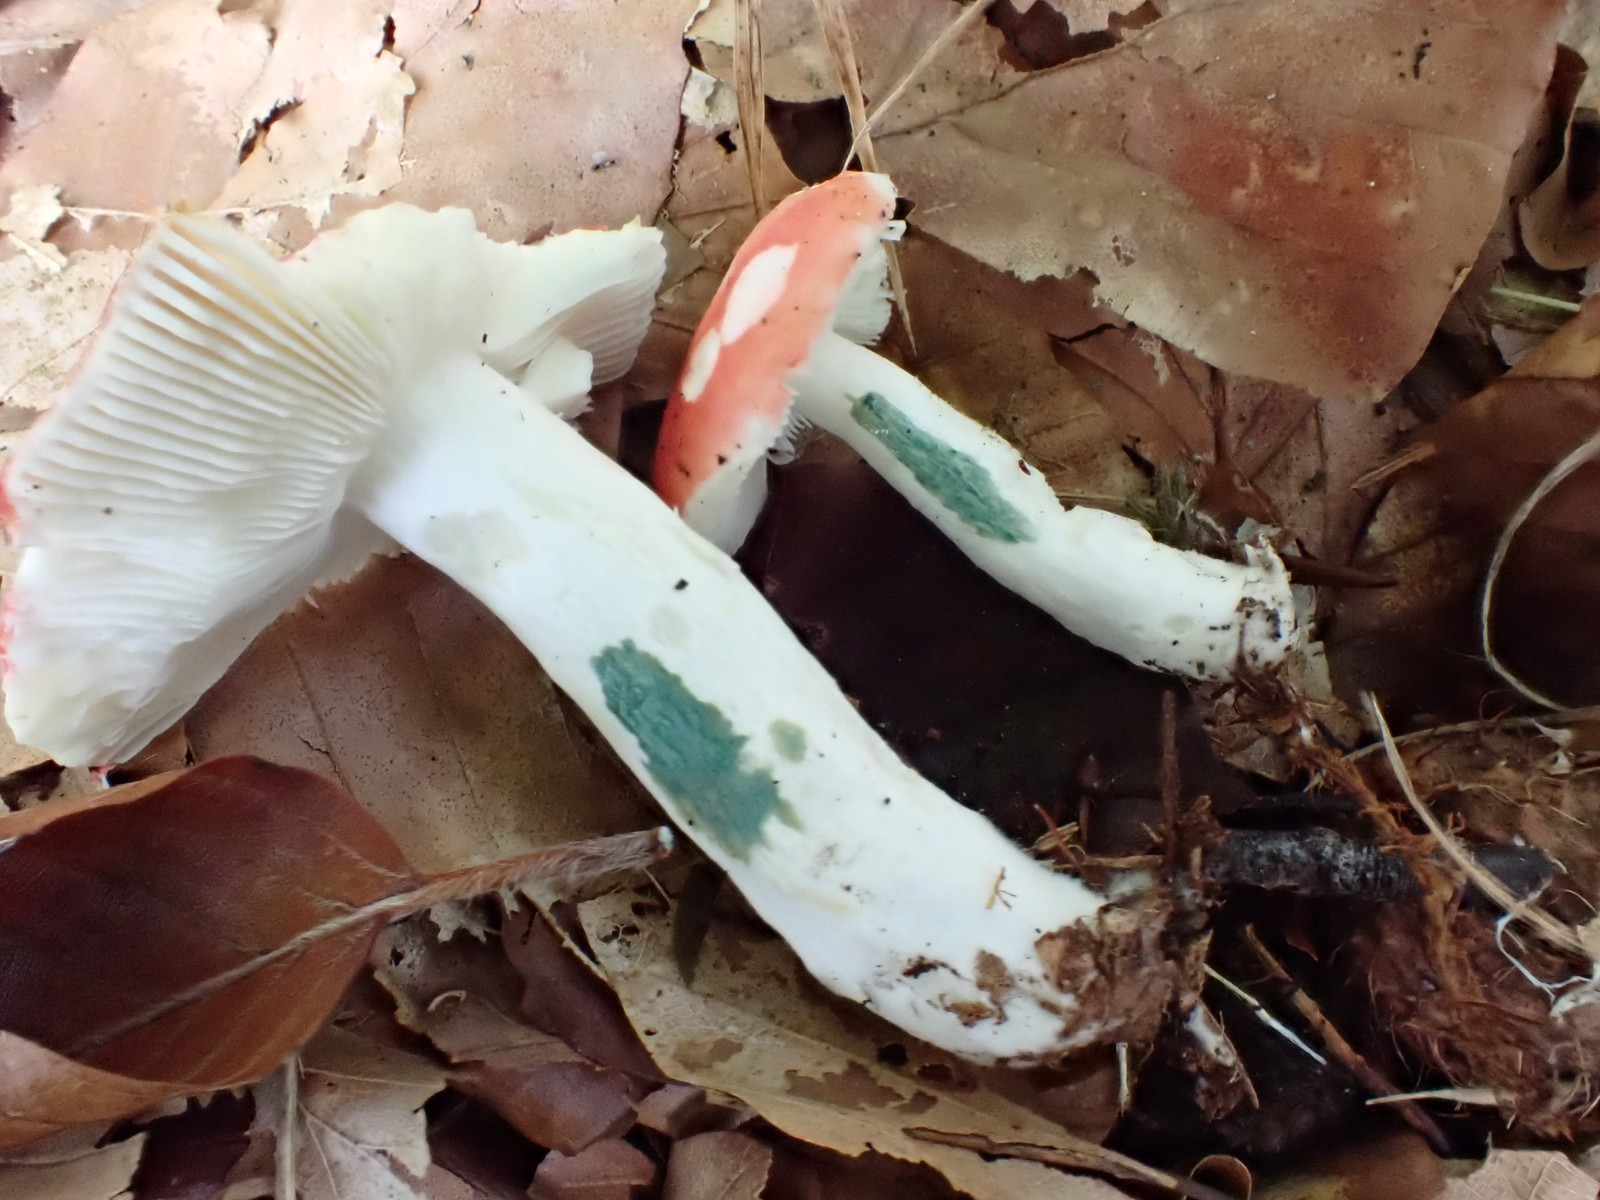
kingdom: Fungi
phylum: Basidiomycota
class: Agaricomycetes
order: Russulales
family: Russulaceae
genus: Russula
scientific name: Russula nobilis
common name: lille gift-skørhat
